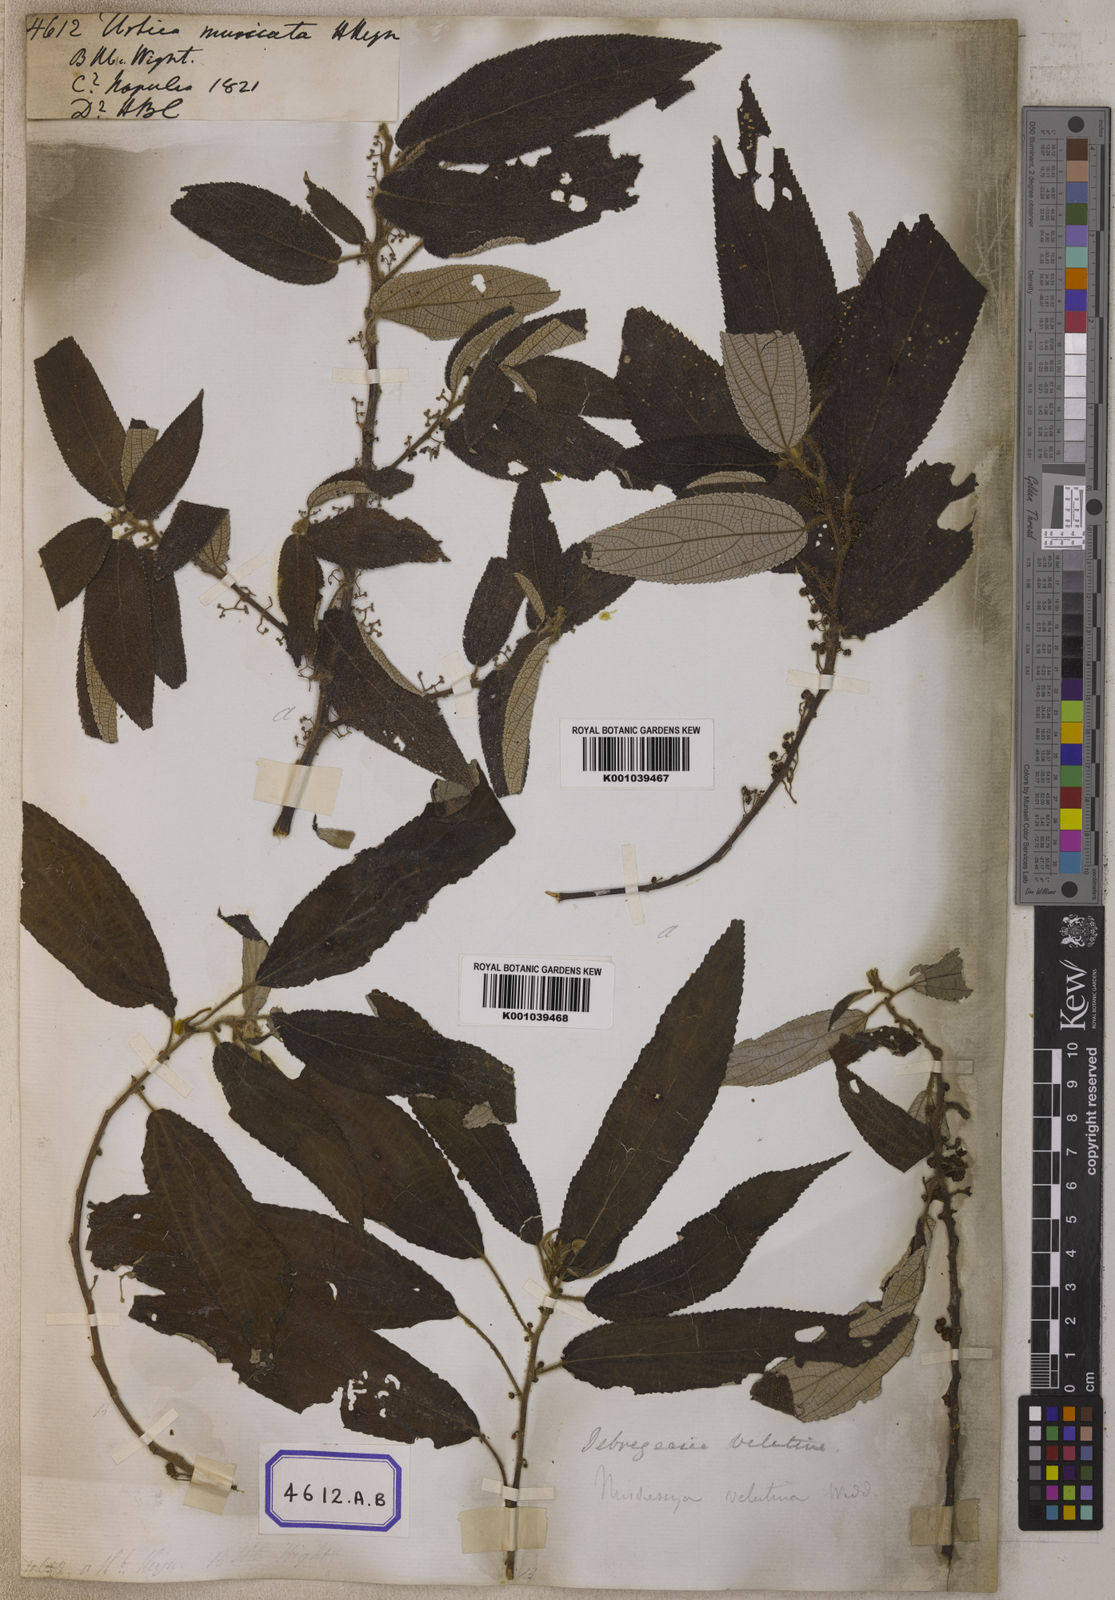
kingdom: Plantae
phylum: Tracheophyta
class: Magnoliopsida
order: Rosales
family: Urticaceae
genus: Debregeasia
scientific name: Debregeasia longifolia
